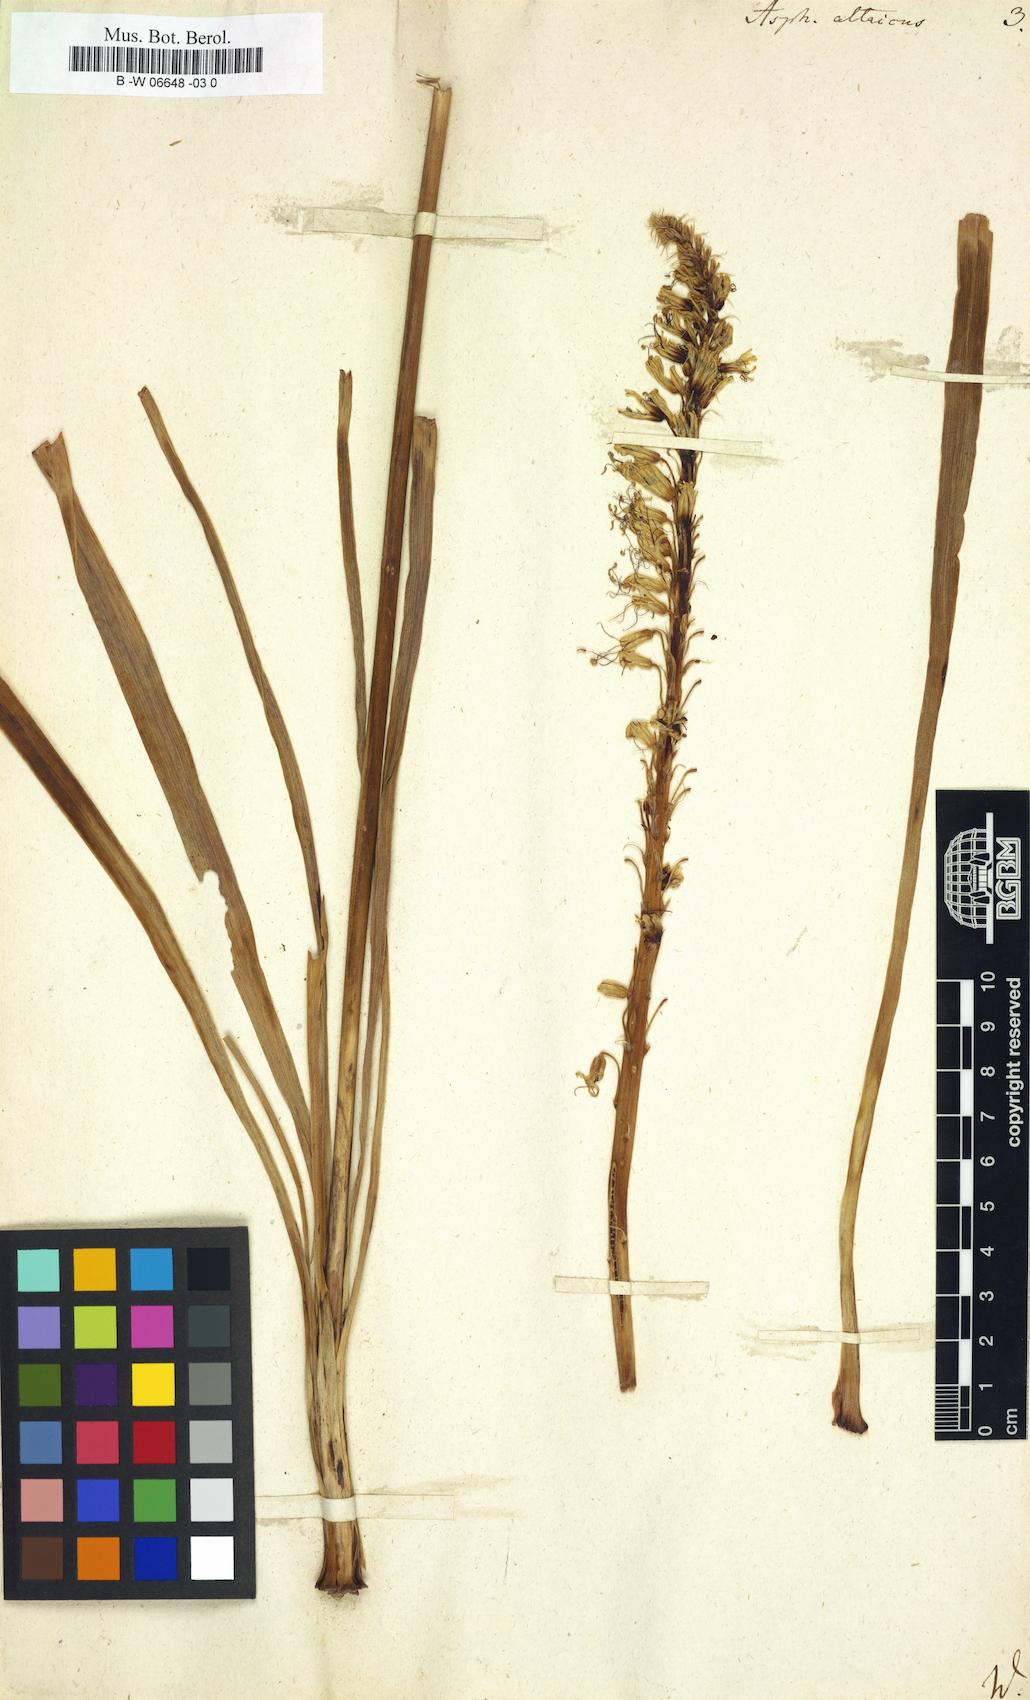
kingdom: Plantae
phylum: Tracheophyta
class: Liliopsida
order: Asparagales
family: Asphodelaceae
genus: Eremurus
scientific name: Eremurus altaicus
